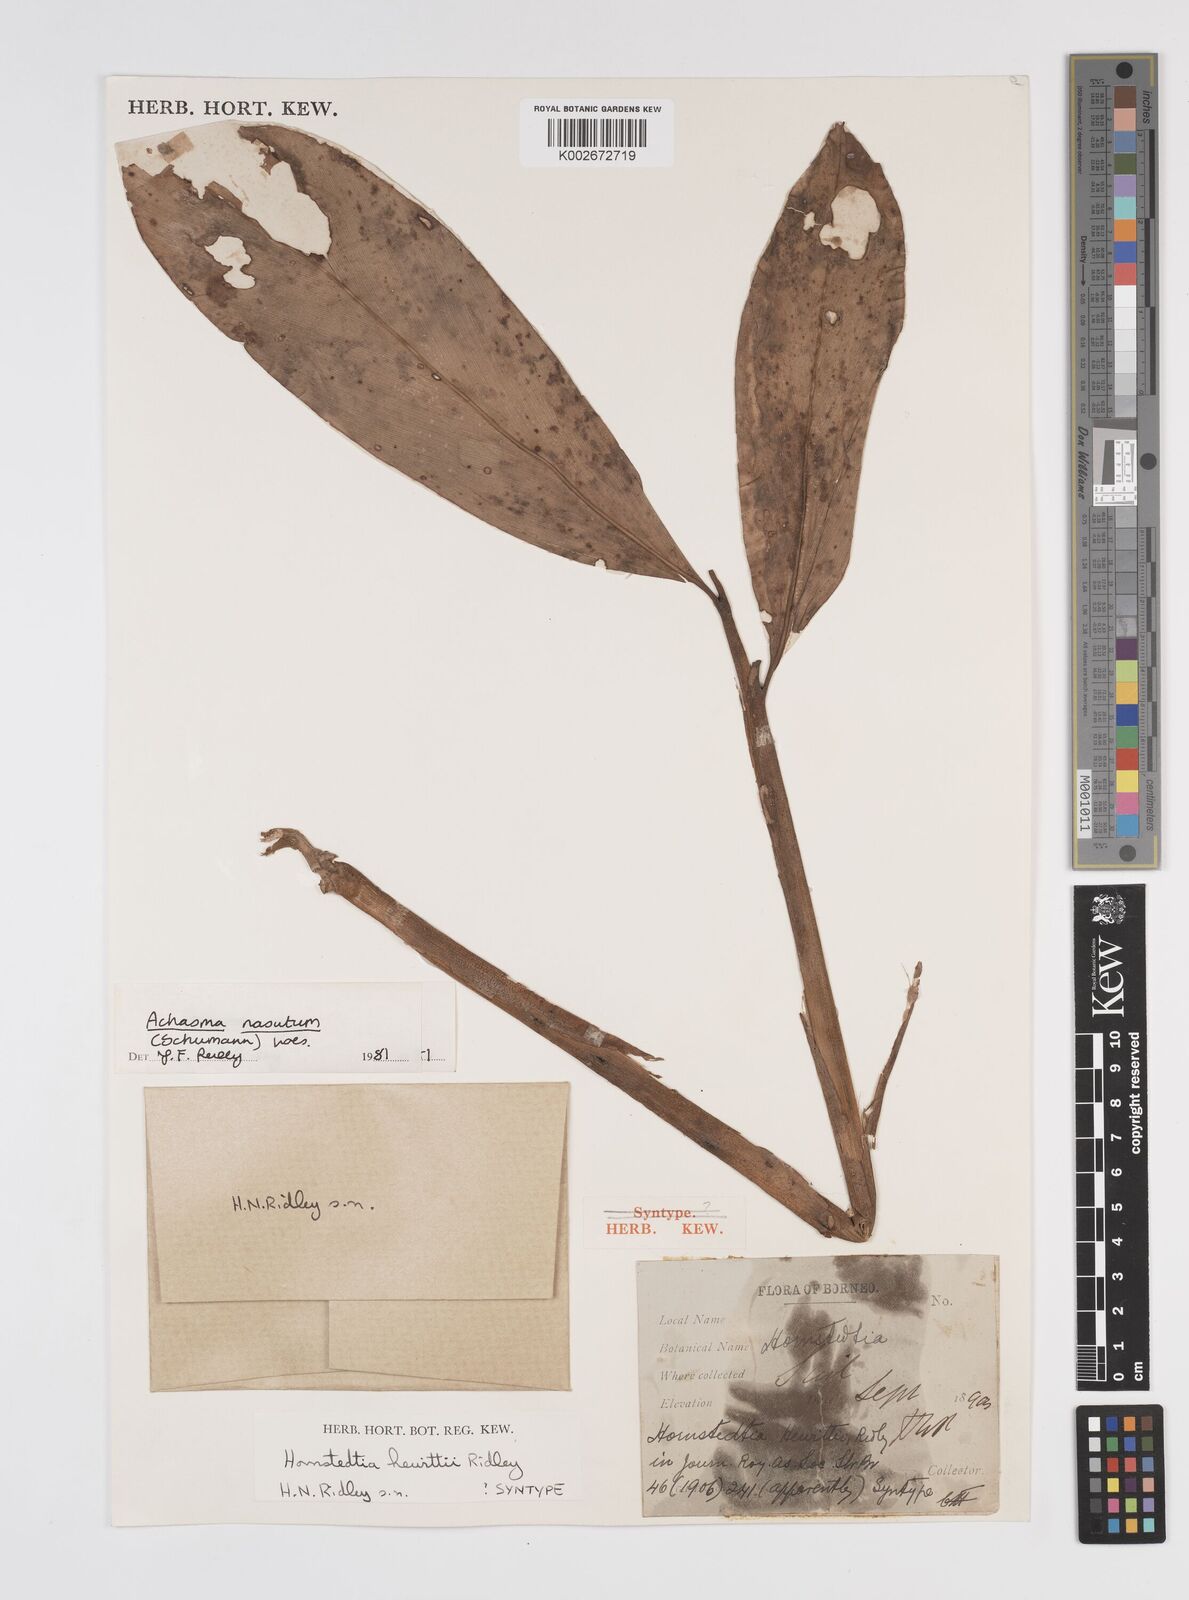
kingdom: Plantae
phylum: Tracheophyta
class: Liliopsida
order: Zingiberales
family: Zingiberaceae
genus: Etlingera
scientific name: Etlingera nasuta
